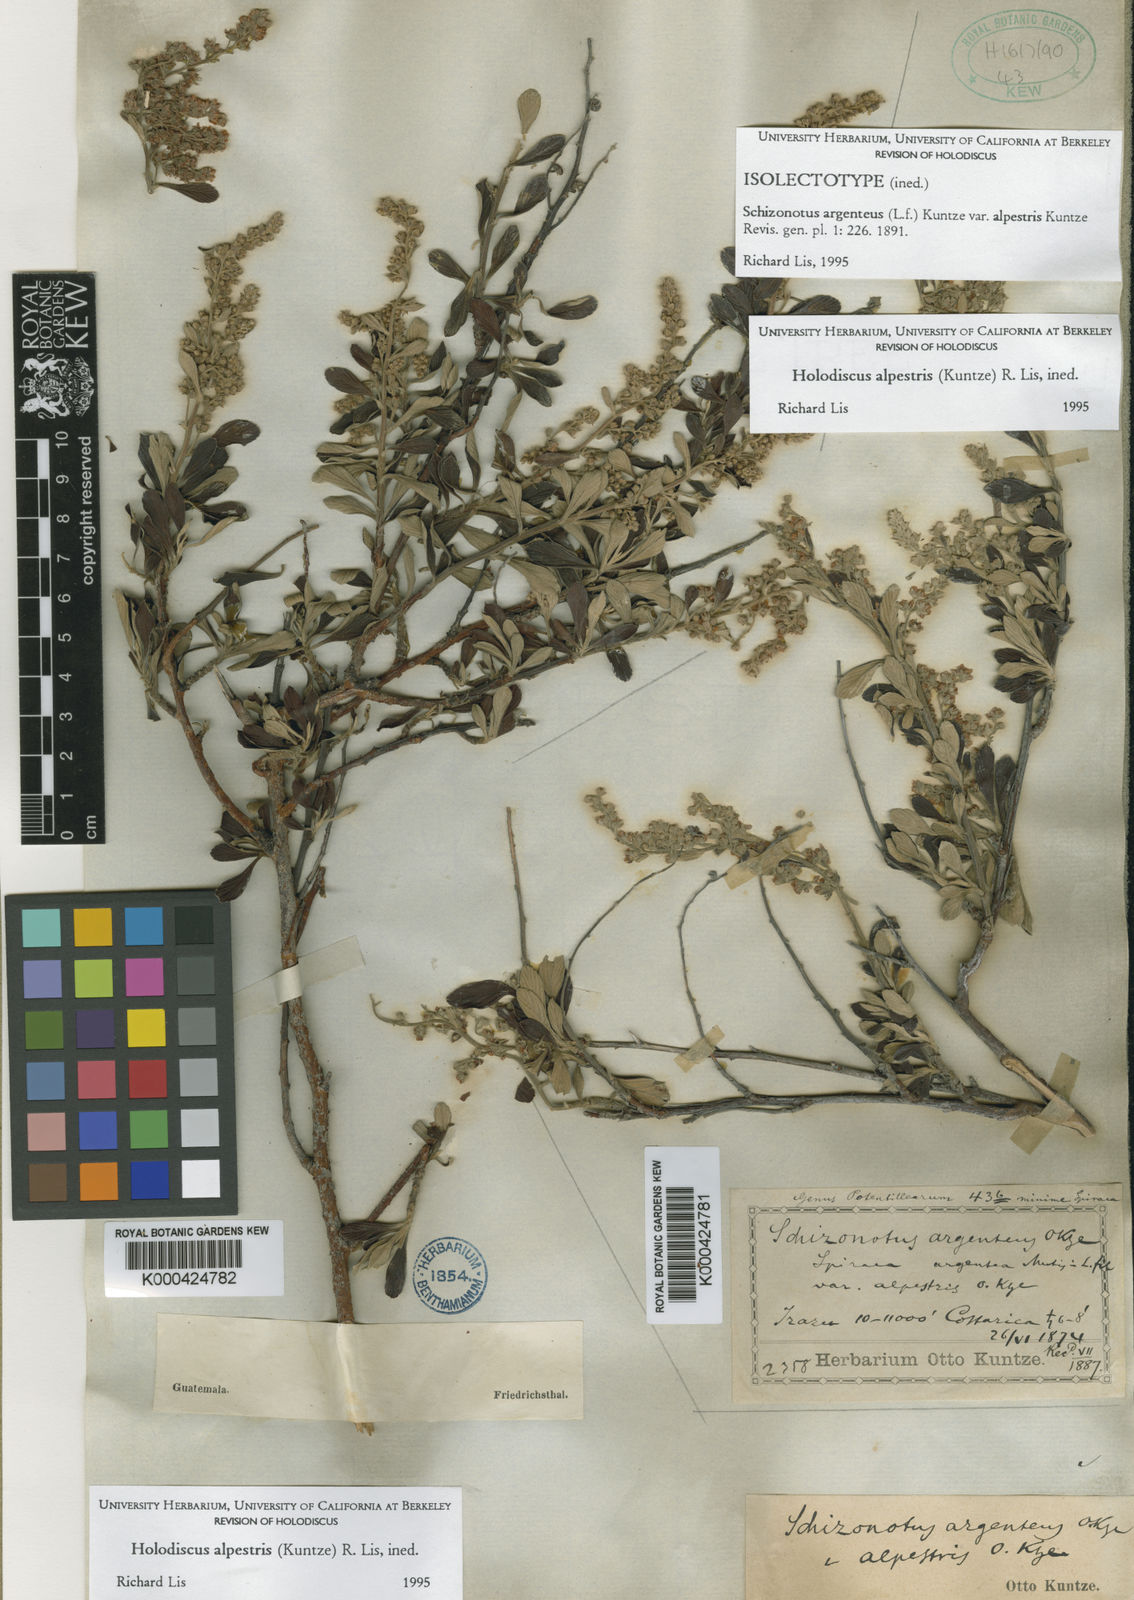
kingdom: Plantae
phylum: Tracheophyta
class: Magnoliopsida
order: Rosales
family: Rosaceae
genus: Holodiscus
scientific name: Holodiscus argenteus
